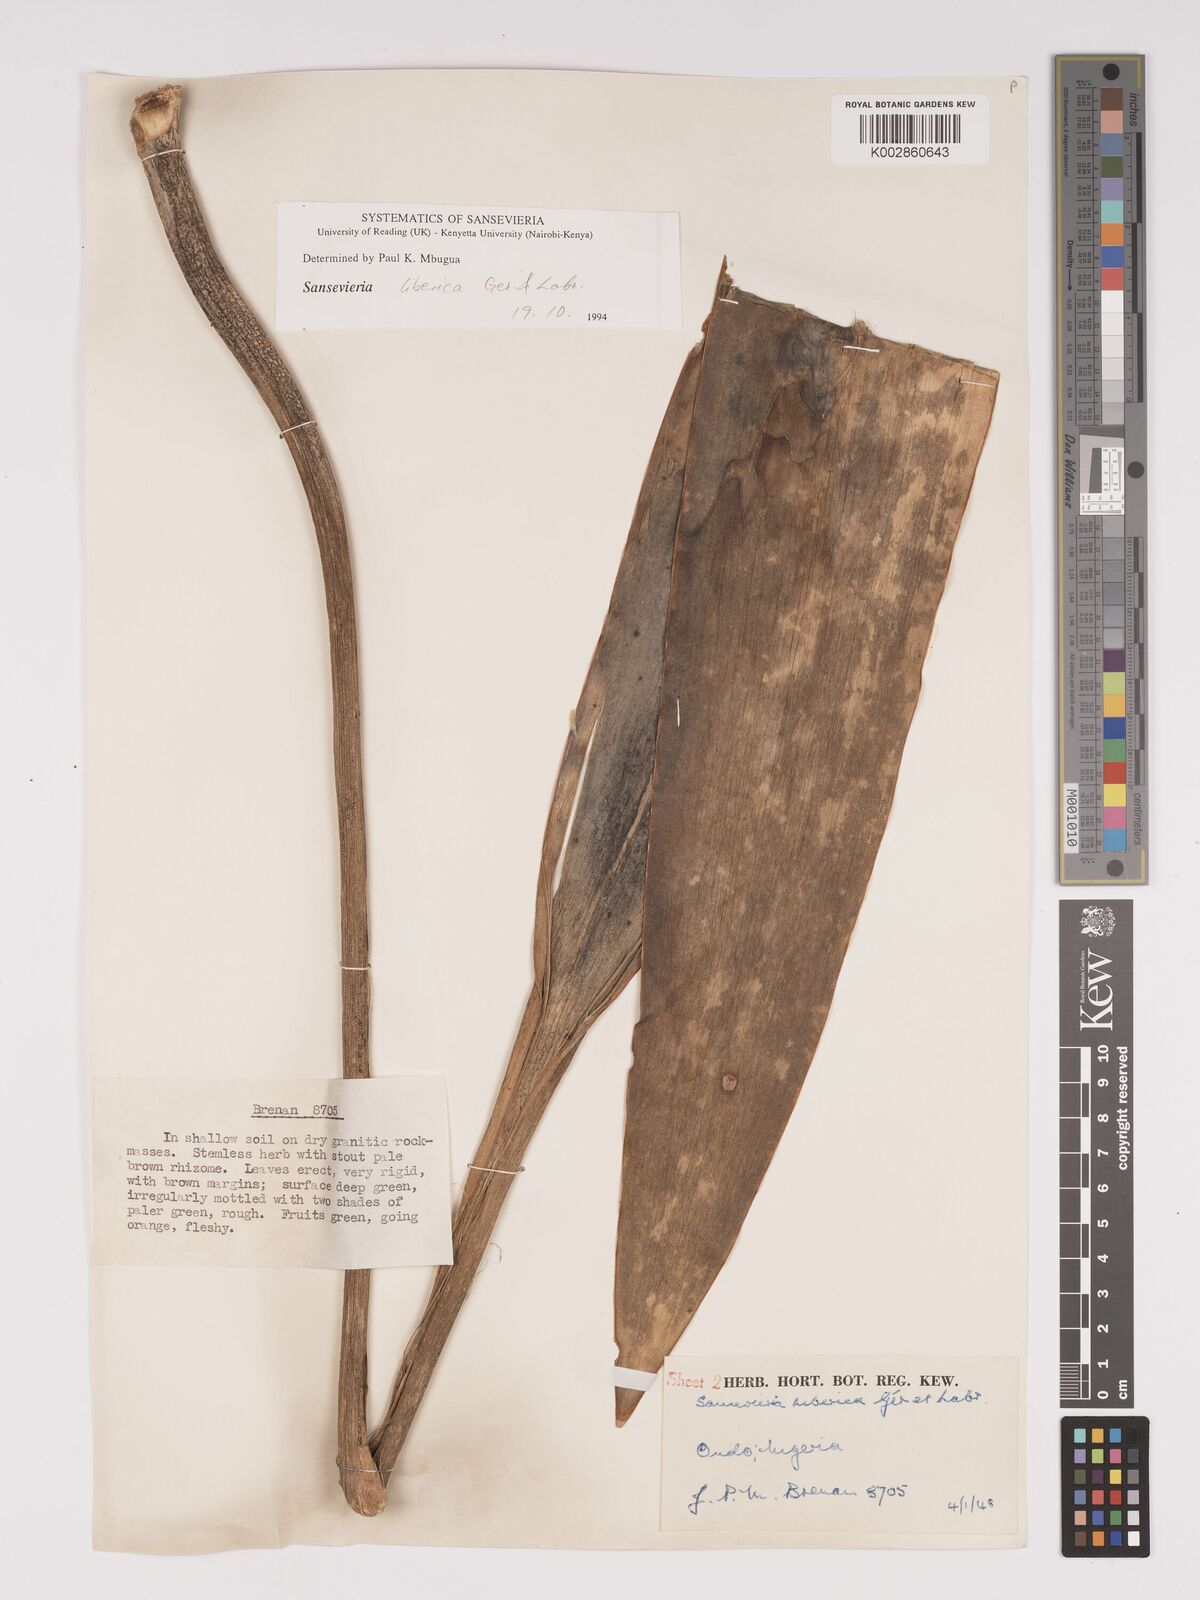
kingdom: Plantae
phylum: Tracheophyta
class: Liliopsida
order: Asparagales
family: Asparagaceae
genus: Dracaena
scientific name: Dracaena liberica
